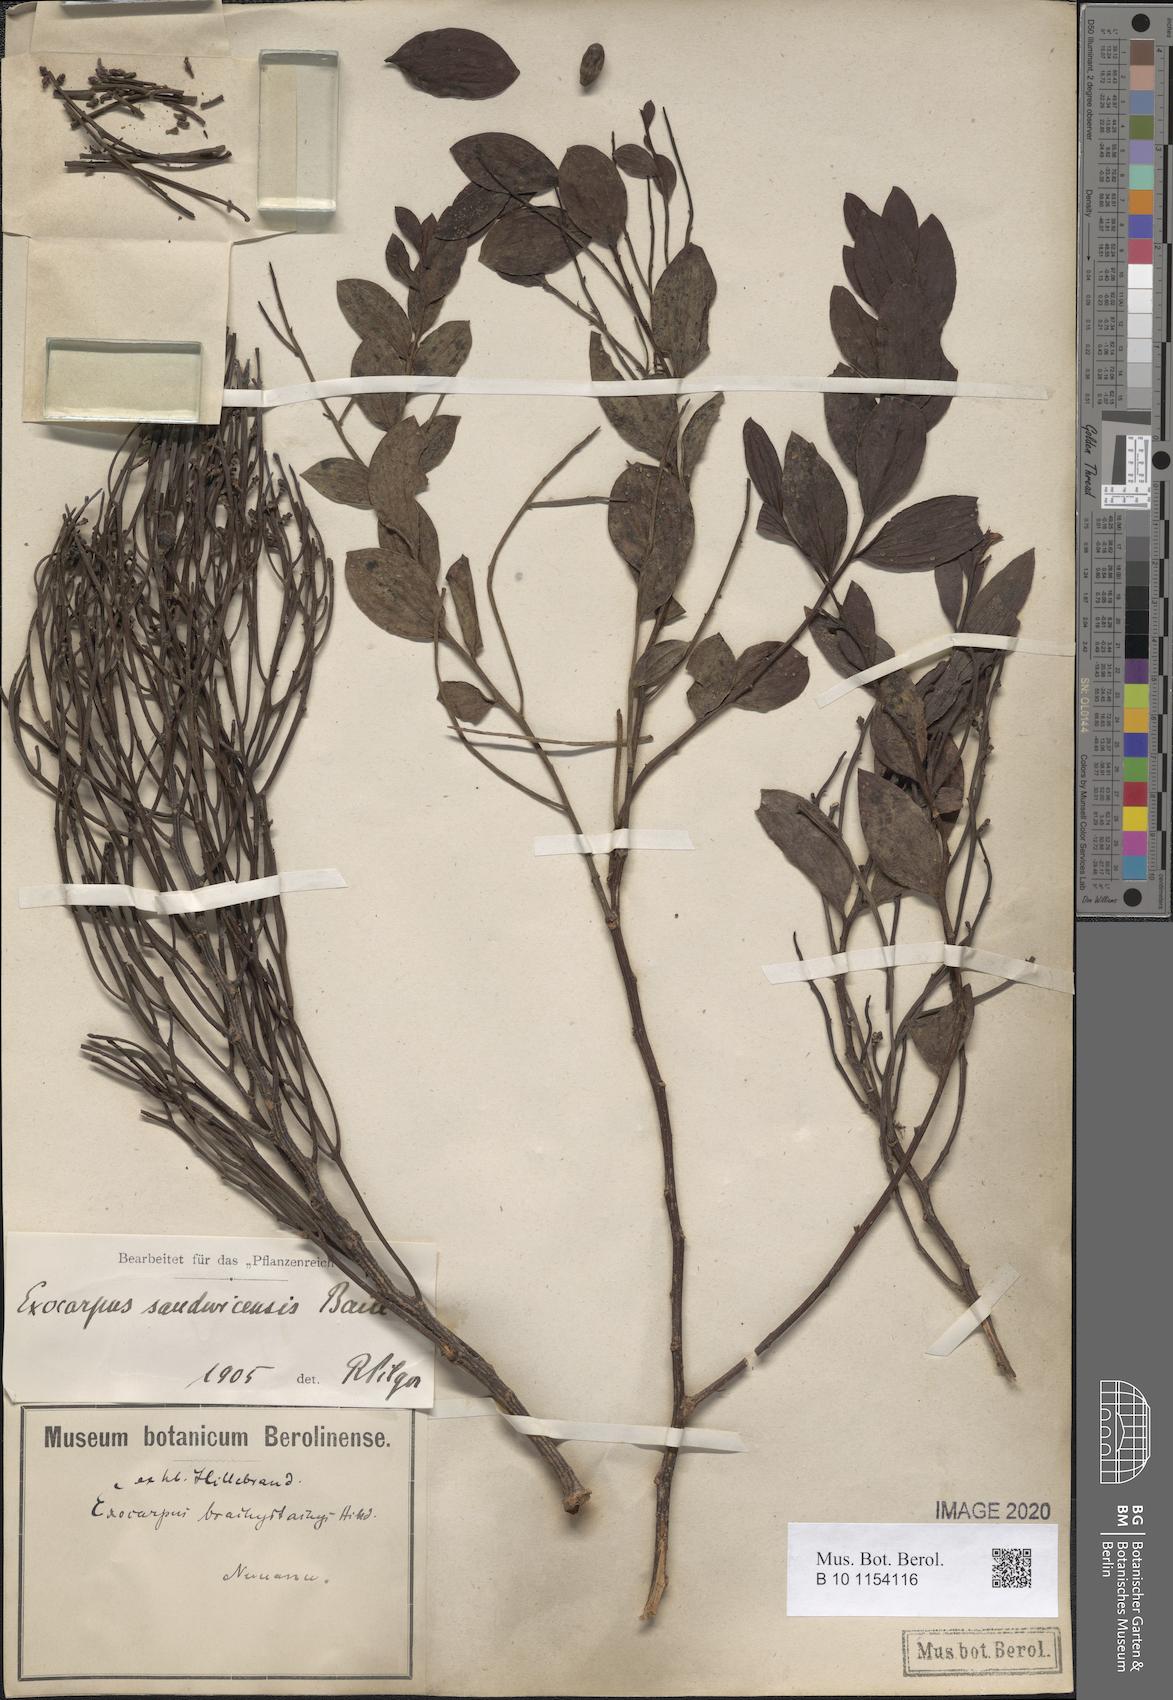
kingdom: Plantae
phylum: Tracheophyta
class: Magnoliopsida
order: Santalales
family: Santalaceae
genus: Exocarpos
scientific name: Exocarpos sandvicensis
